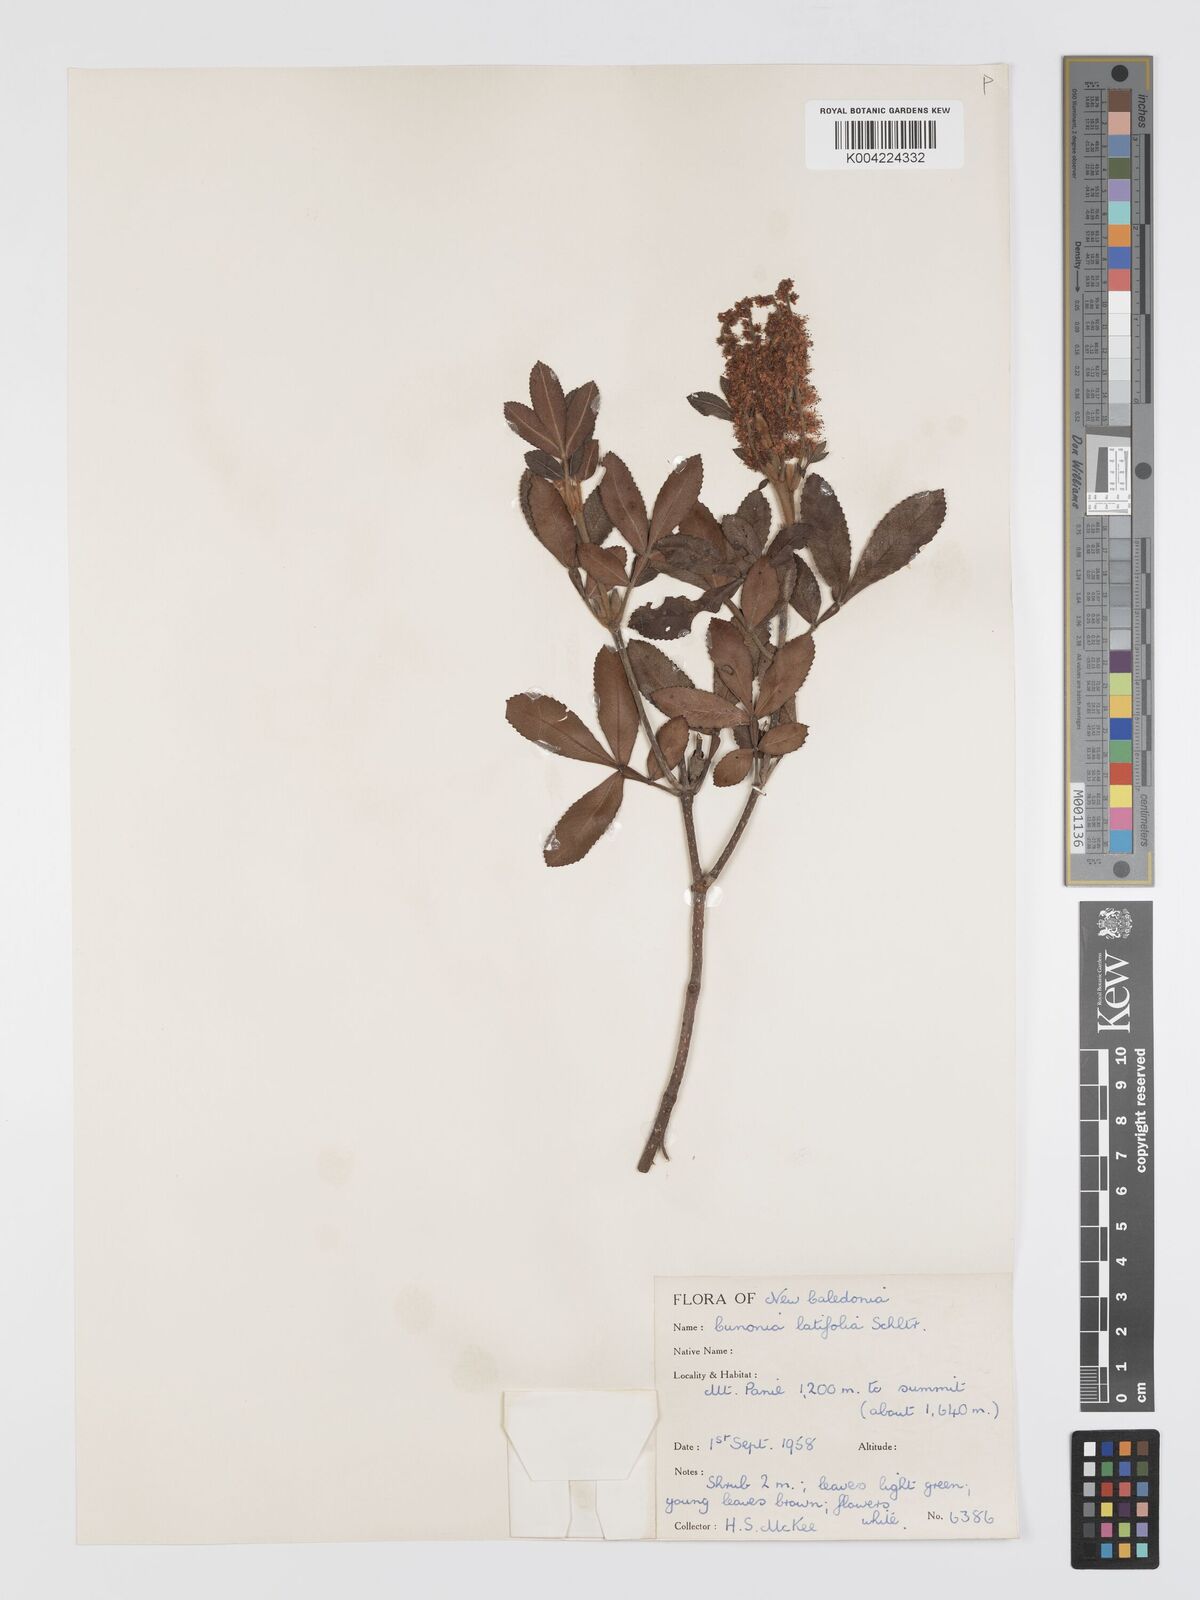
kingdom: Plantae
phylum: Tracheophyta
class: Magnoliopsida
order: Oxalidales
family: Cunoniaceae
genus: Cunonia
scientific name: Cunonia pulchella
